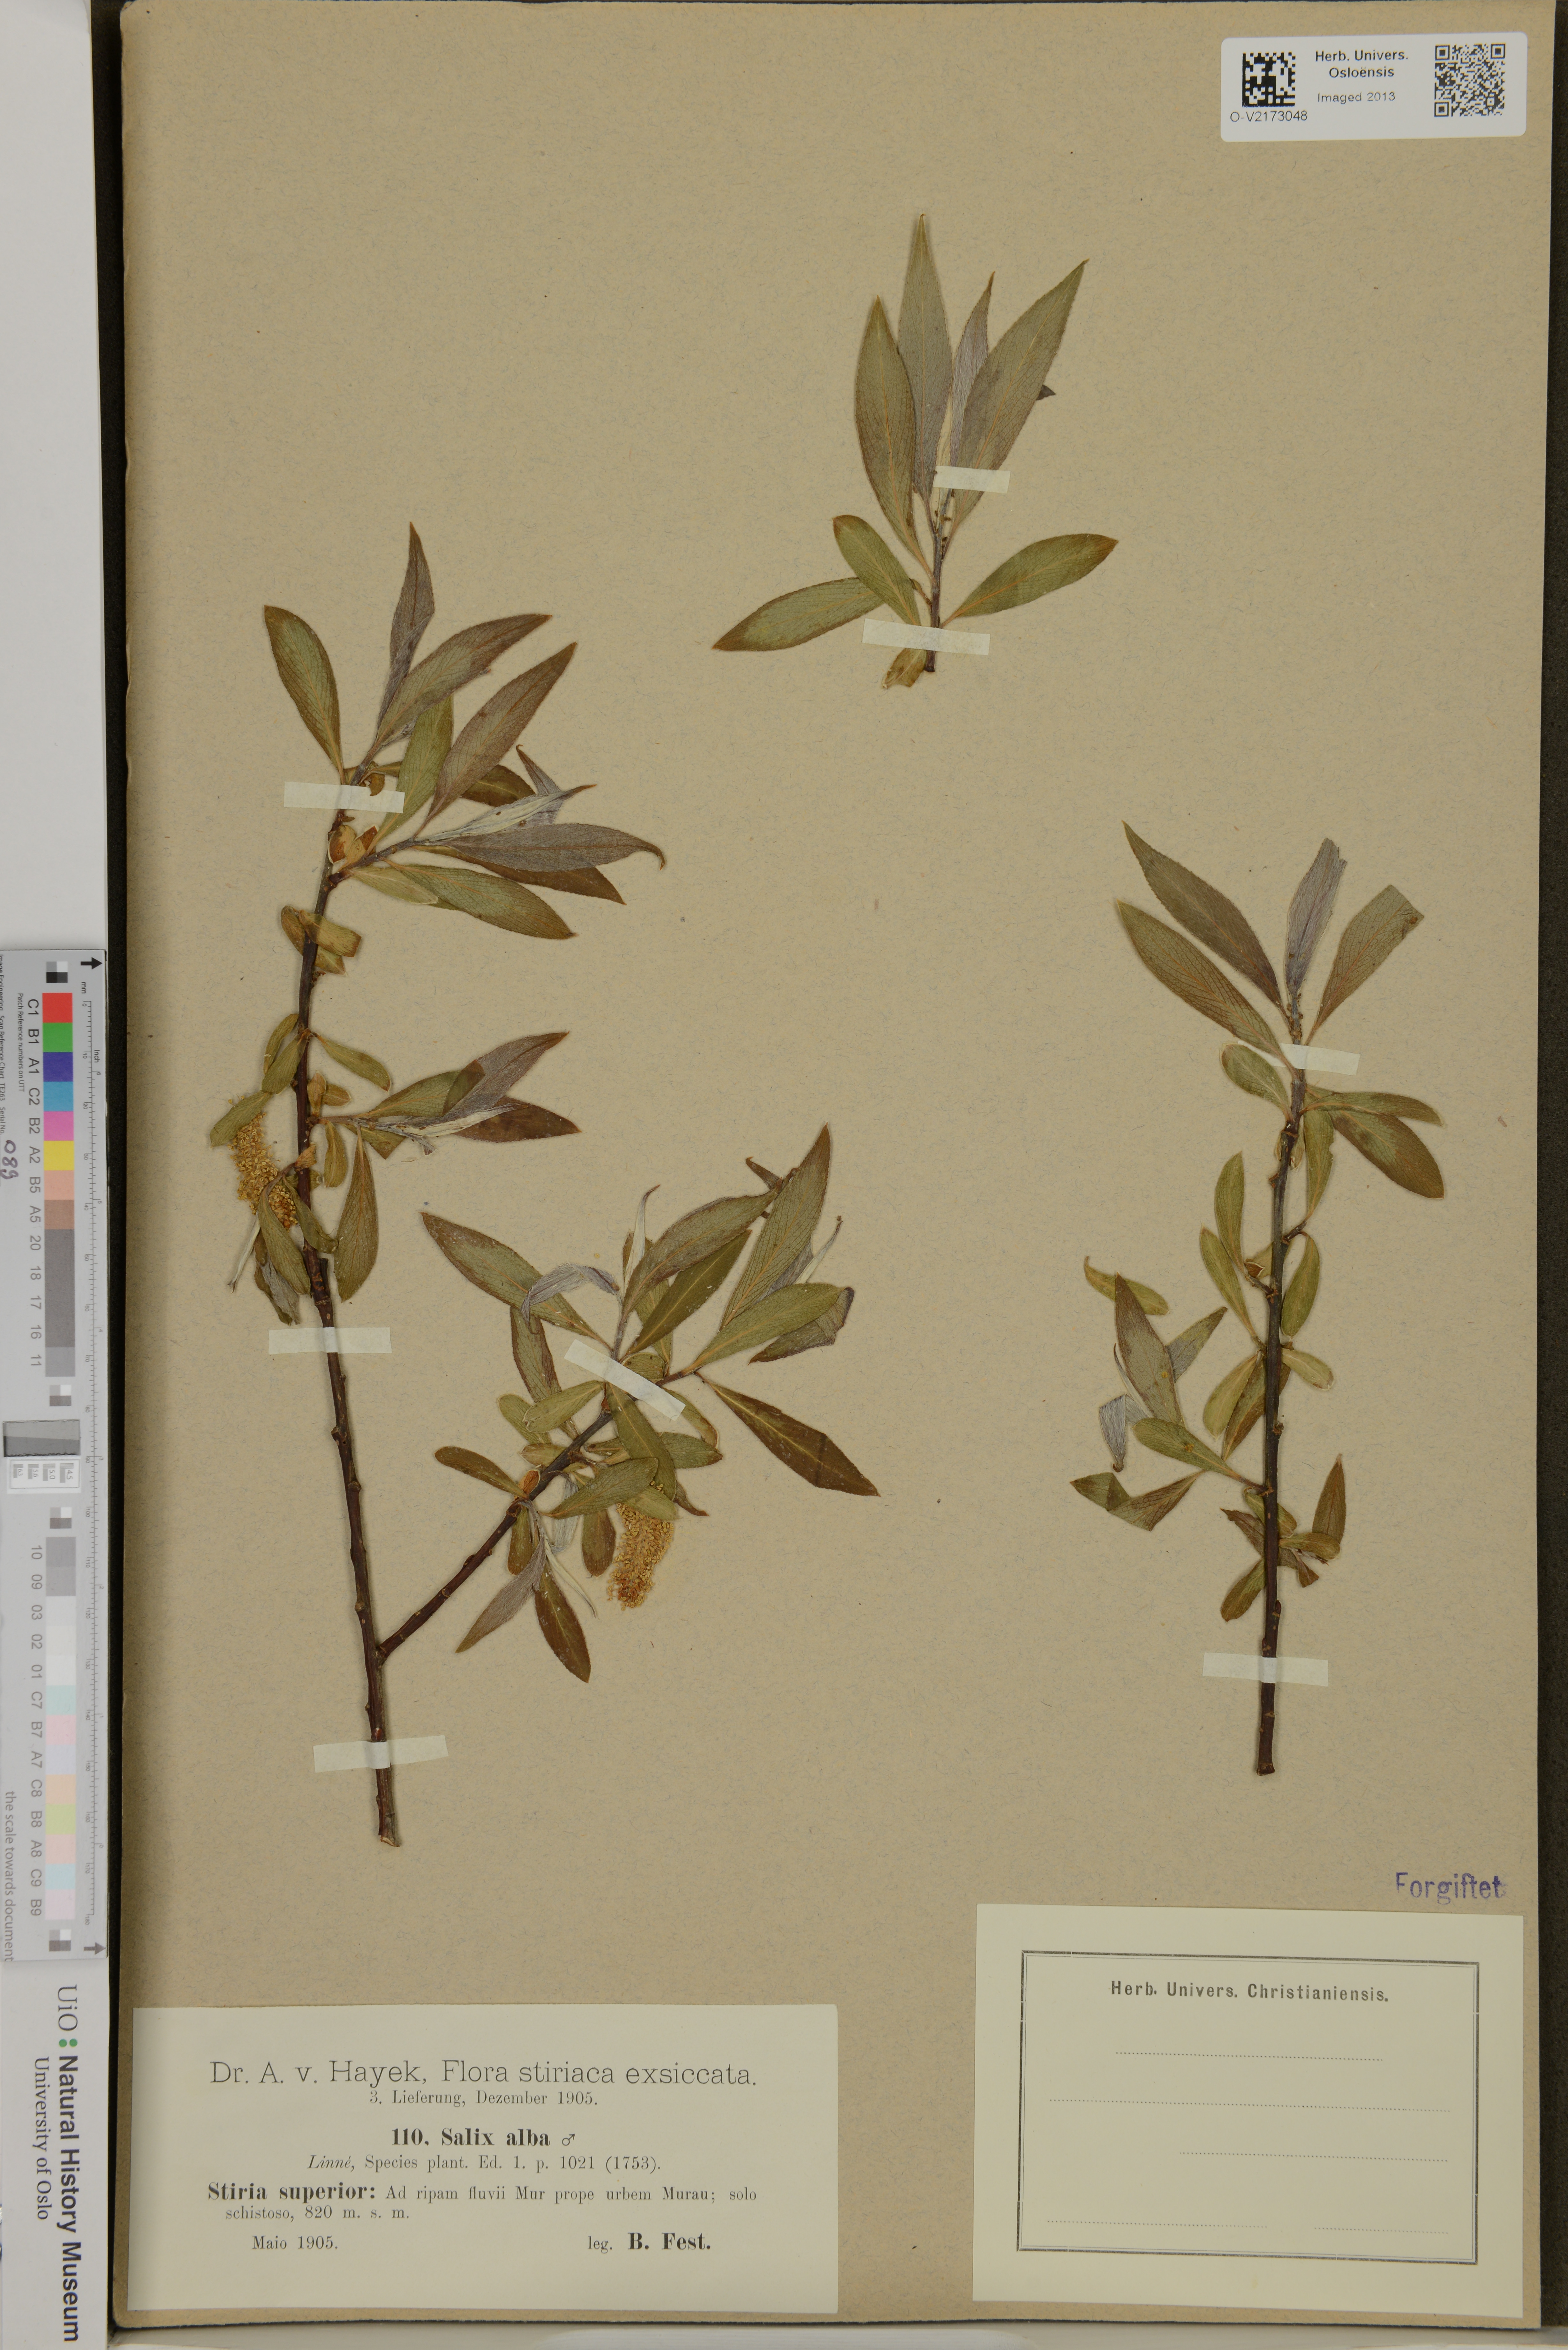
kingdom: Plantae
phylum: Tracheophyta
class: Magnoliopsida
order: Malpighiales
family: Salicaceae
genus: Salix
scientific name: Salix alba
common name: White willow
